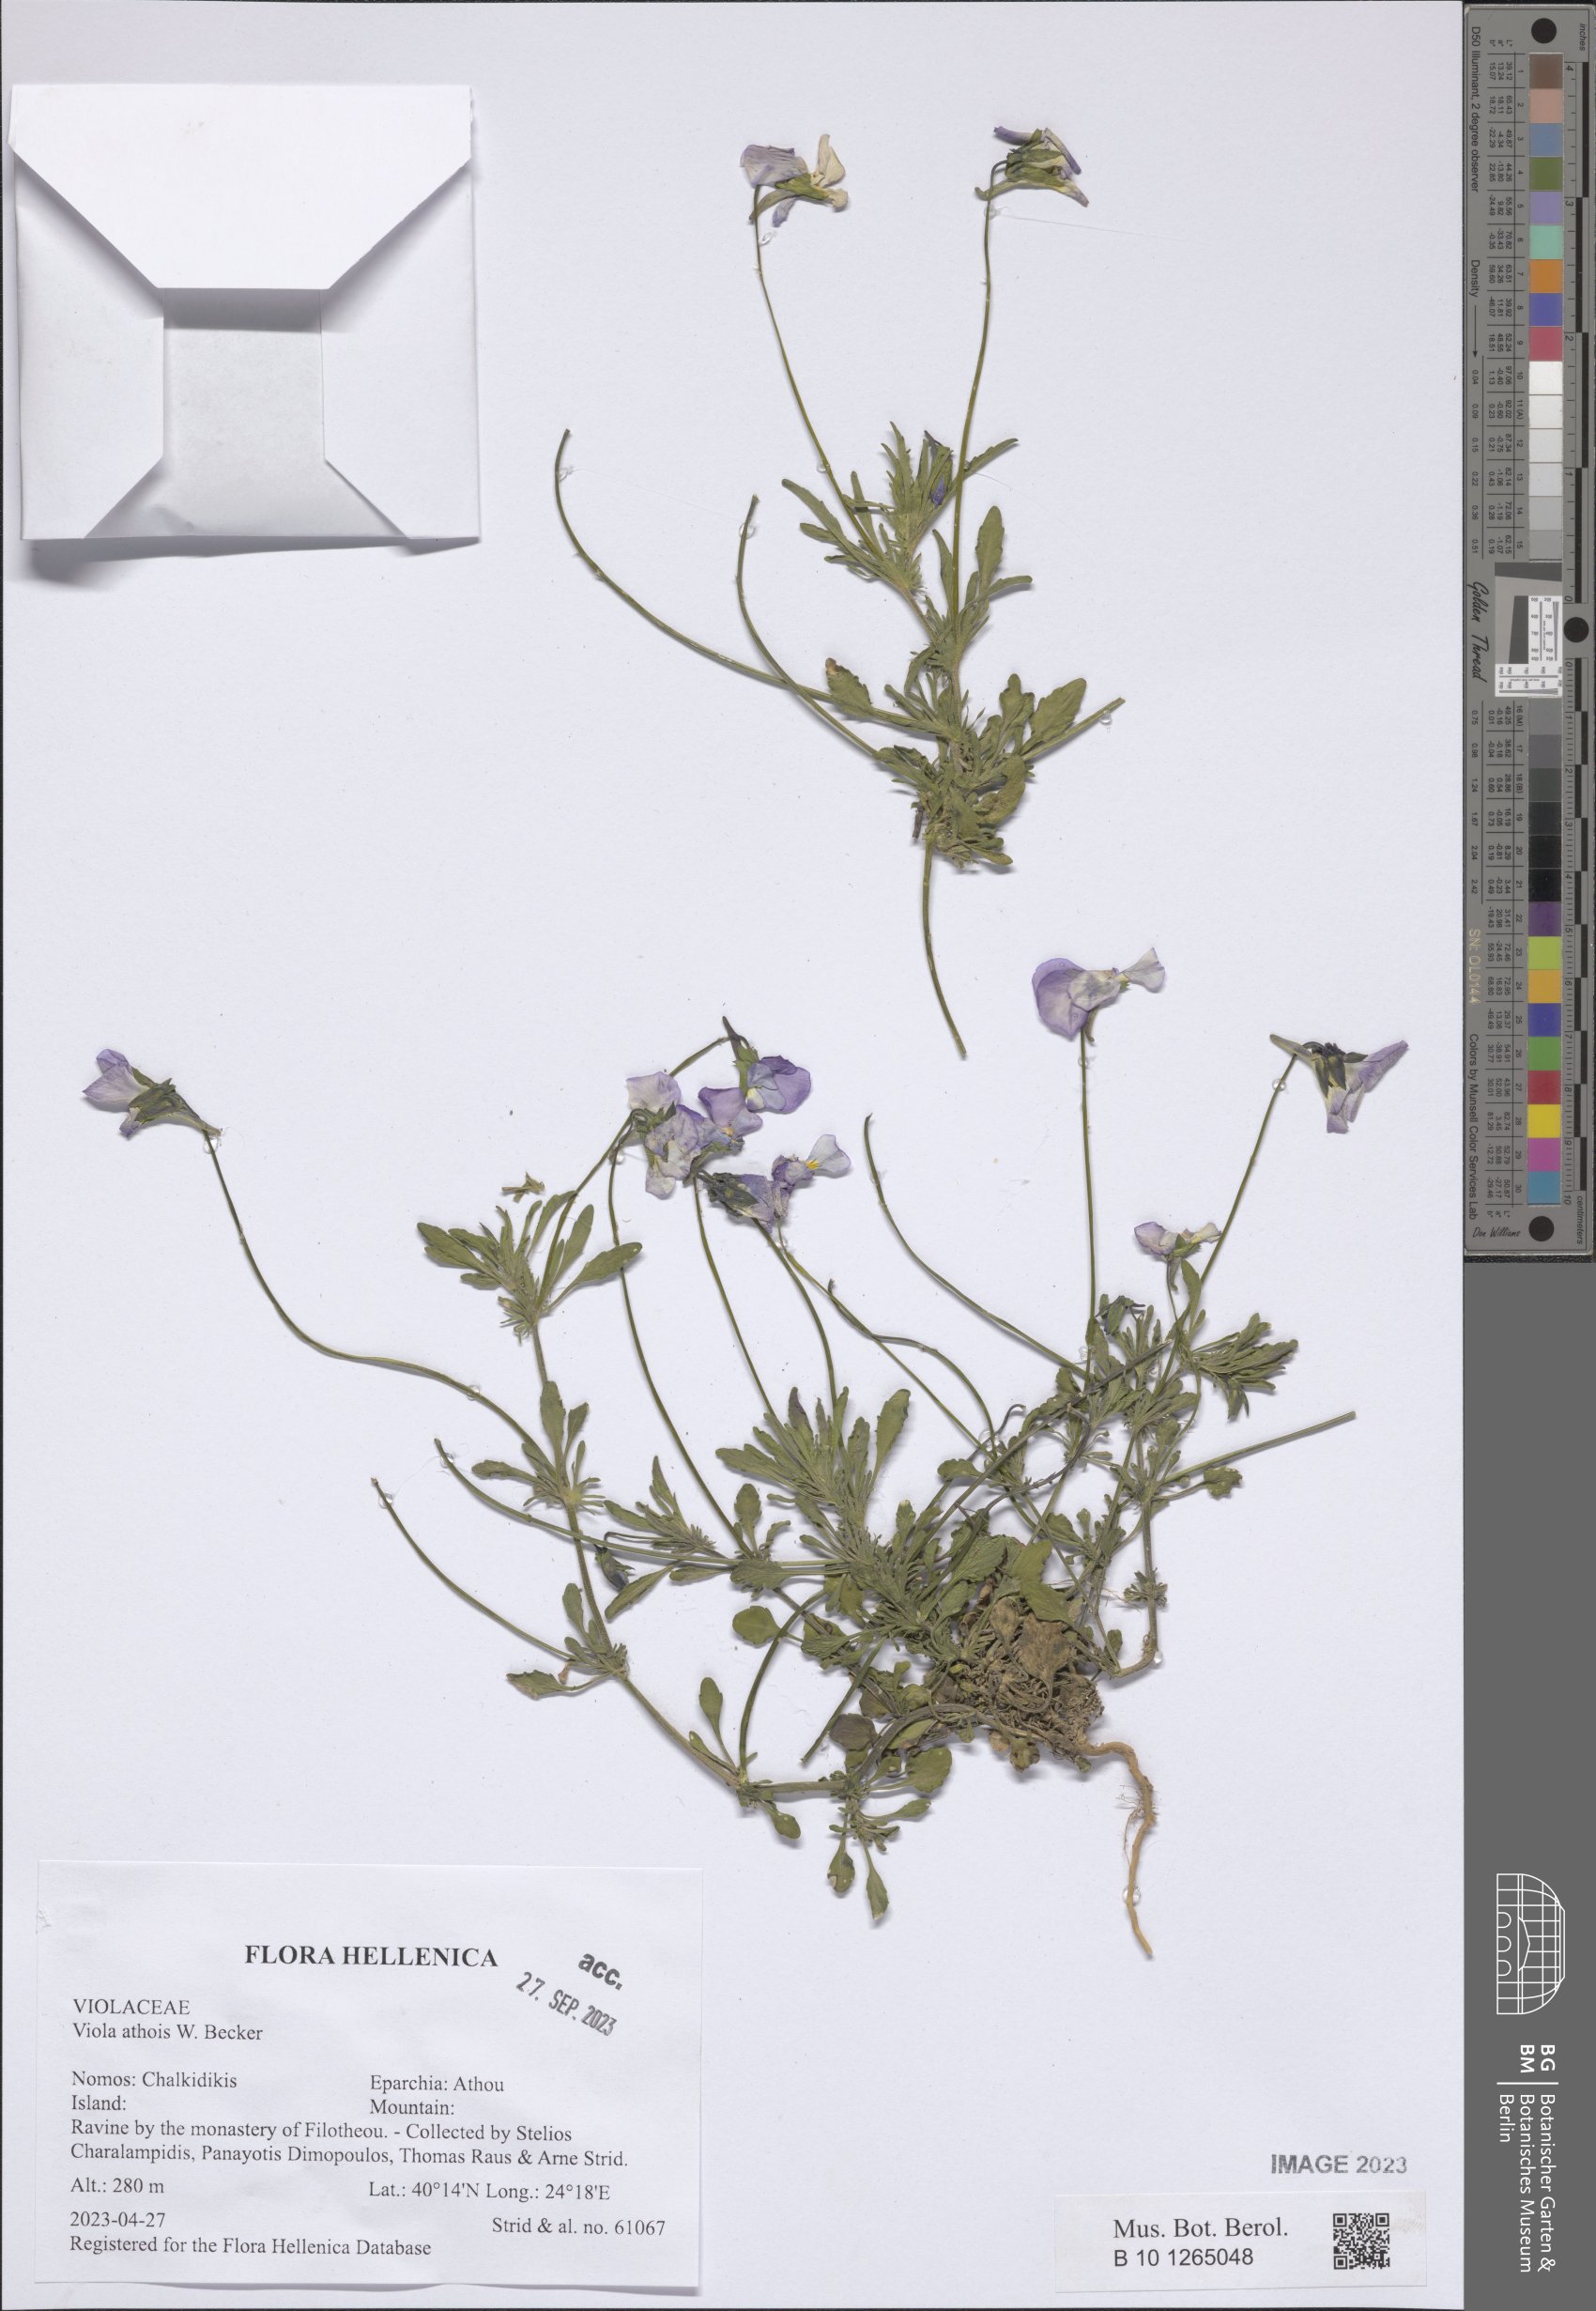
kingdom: Plantae
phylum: Tracheophyta
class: Magnoliopsida
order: Malpighiales
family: Violaceae
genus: Viola
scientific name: Viola athois
